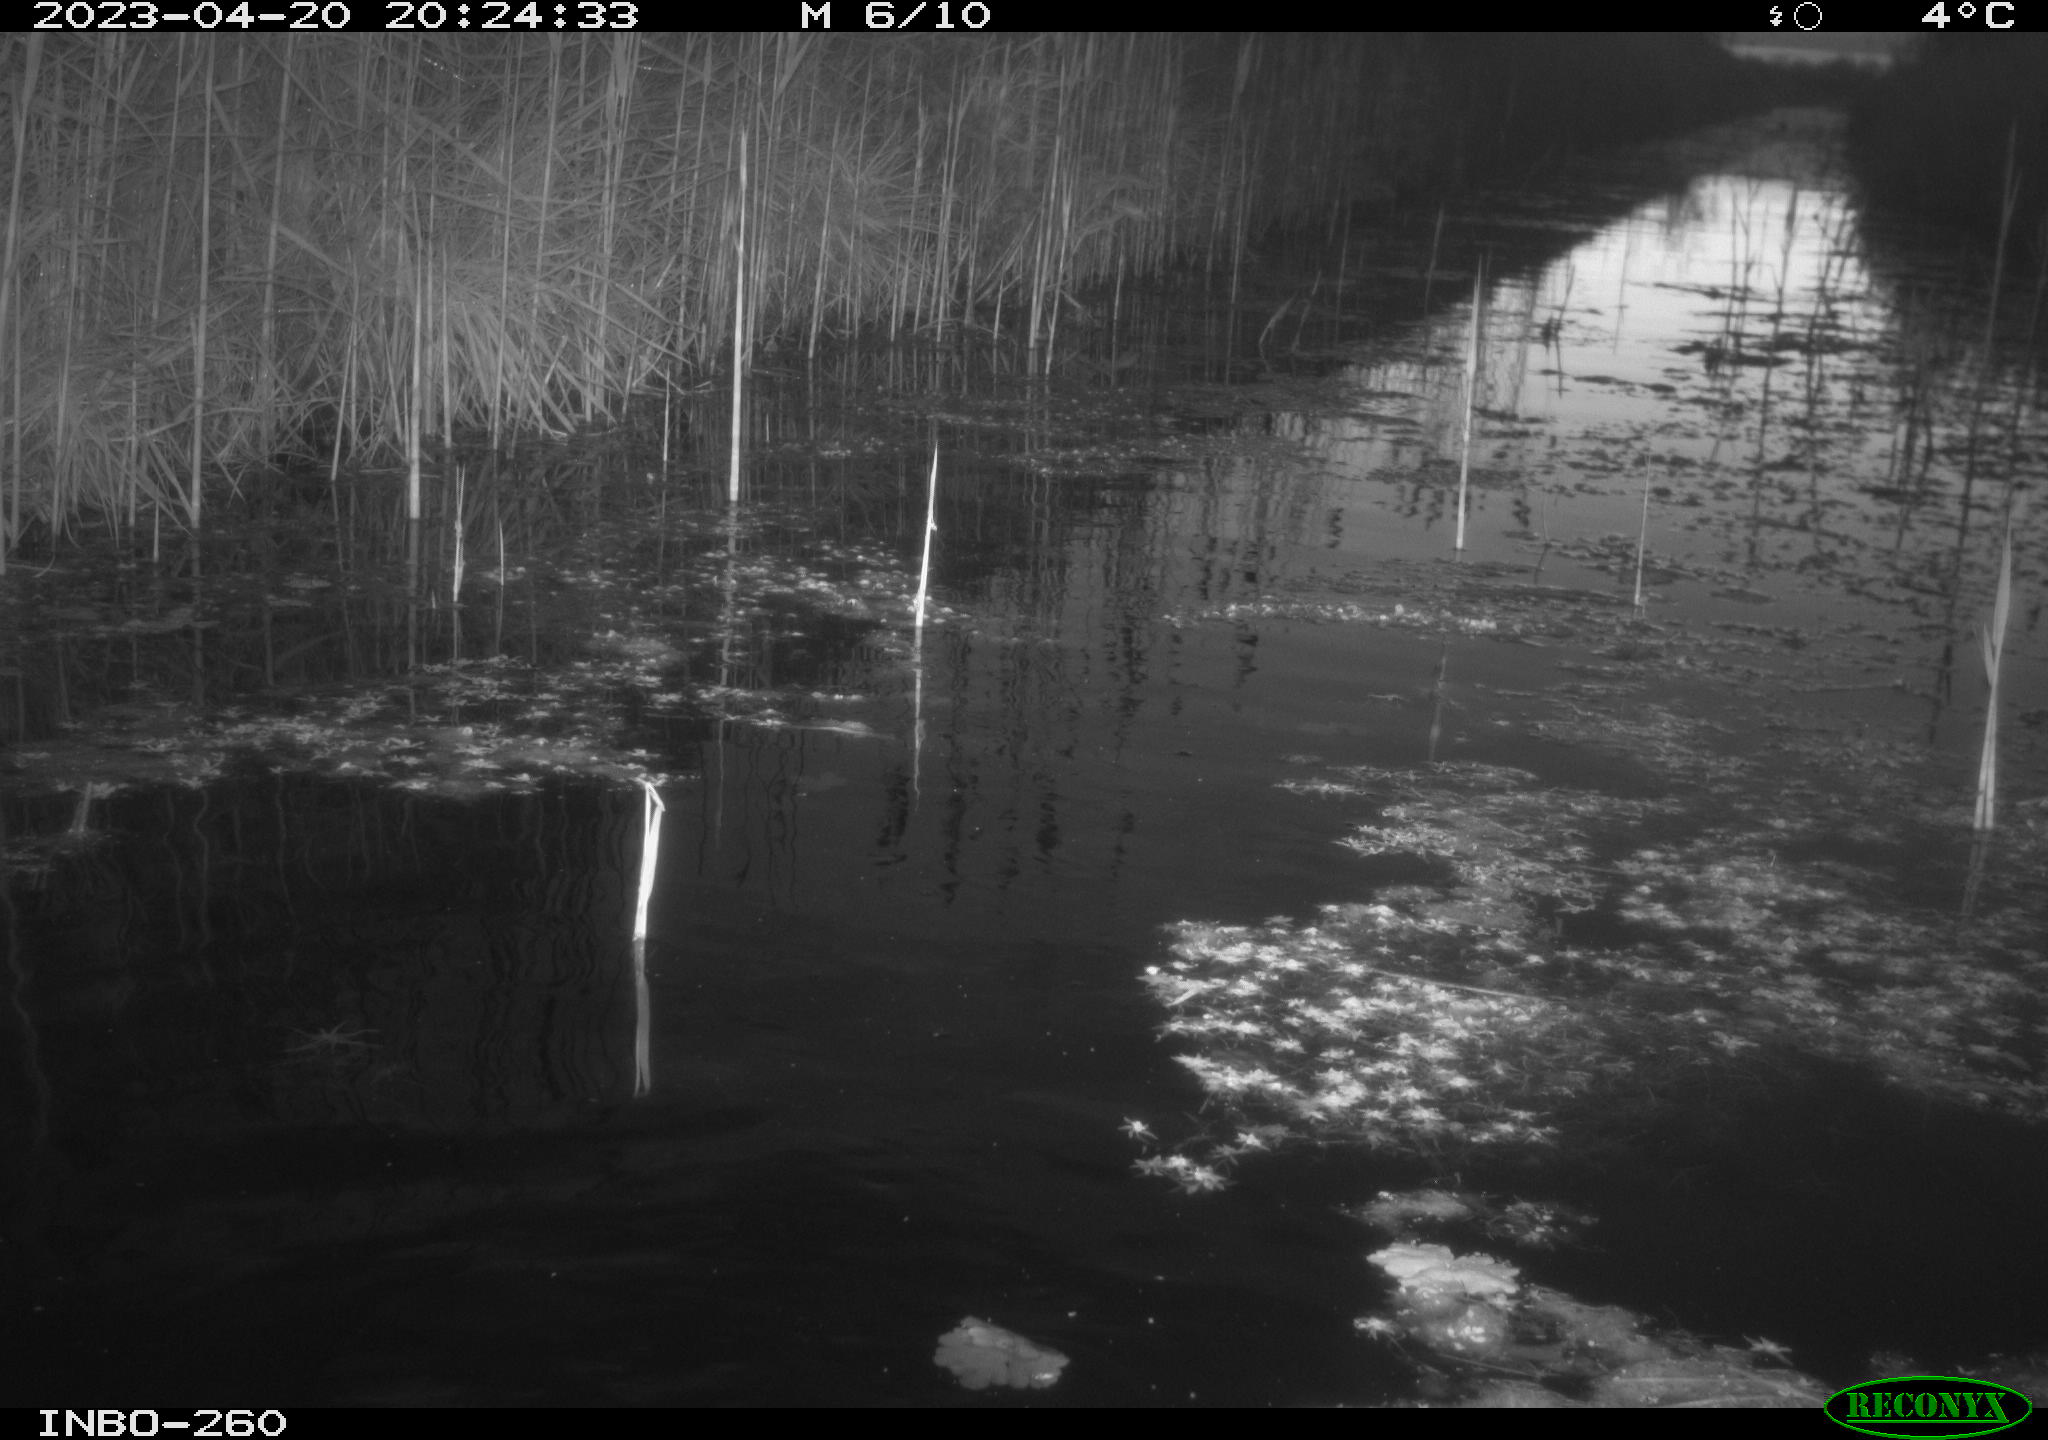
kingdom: Animalia
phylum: Chordata
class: Mammalia
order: Rodentia
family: Cricetidae
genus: Ondatra
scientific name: Ondatra zibethicus
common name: Muskrat
